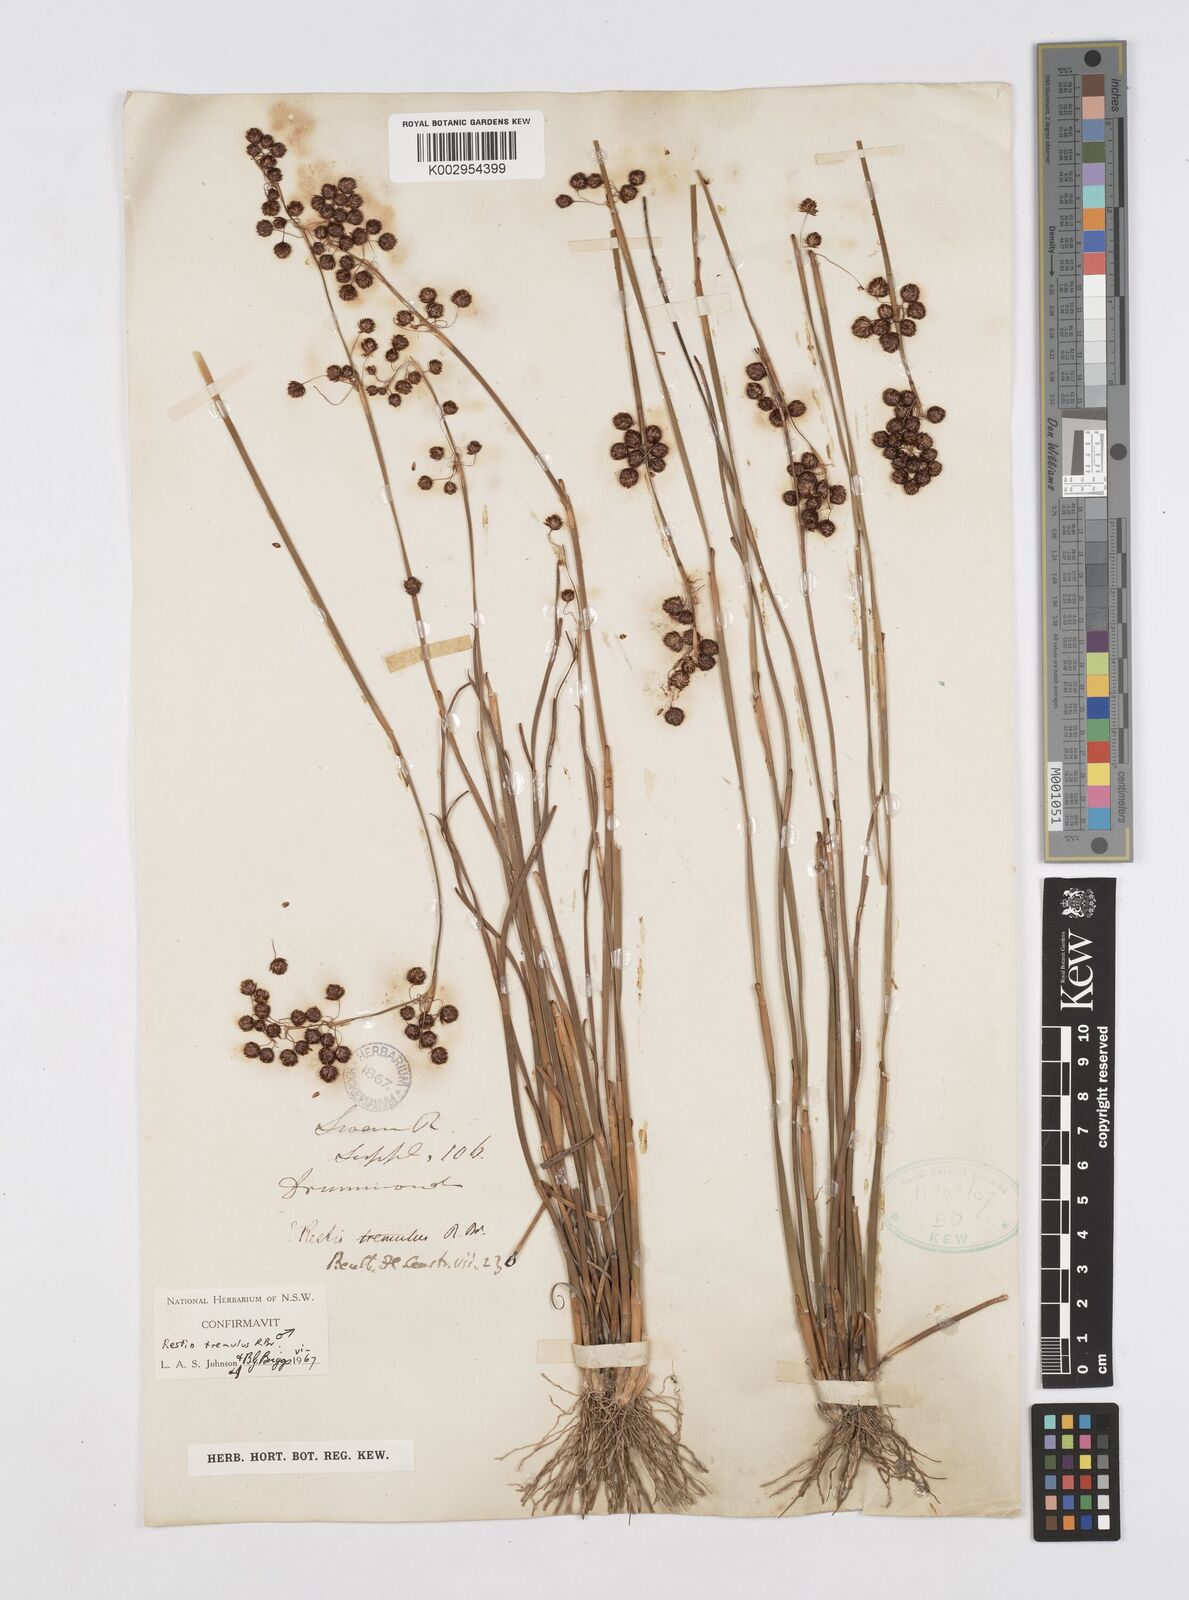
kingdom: Plantae
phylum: Tracheophyta
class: Liliopsida
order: Poales
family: Restionaceae
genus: Tremulina
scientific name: Tremulina tremula
